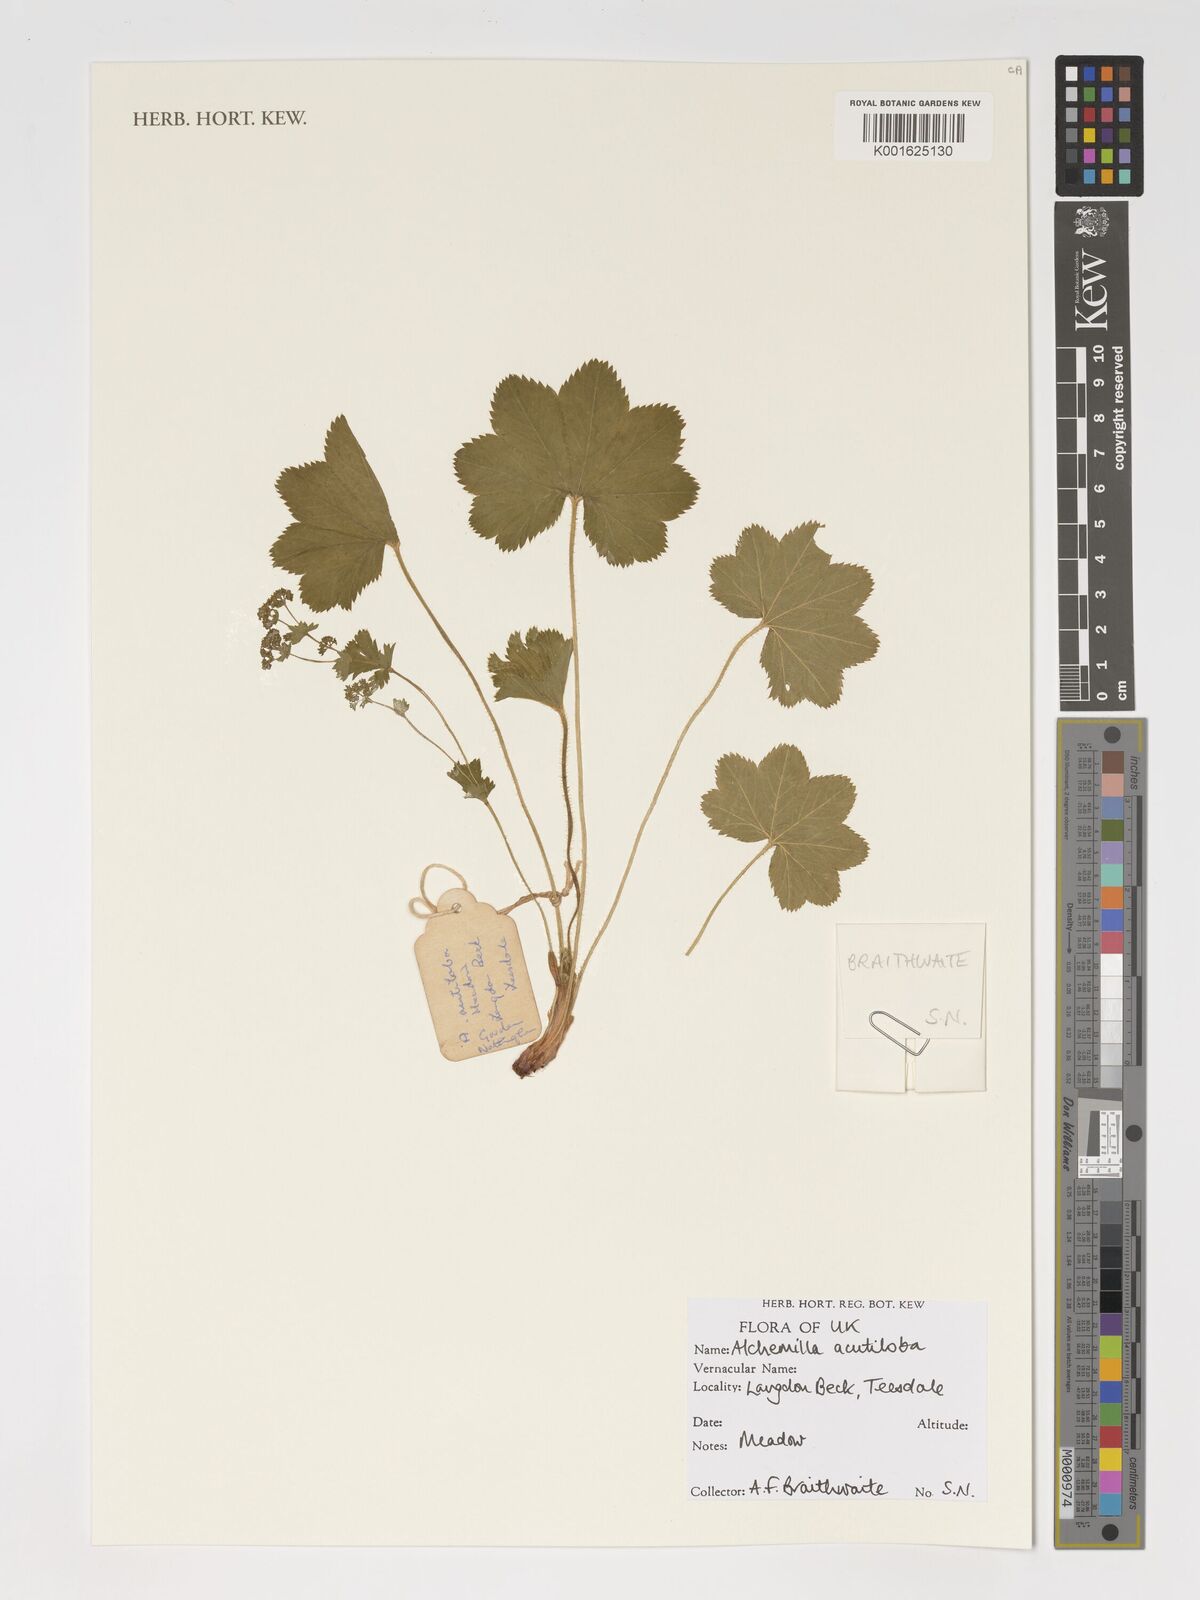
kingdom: Plantae
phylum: Tracheophyta
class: Magnoliopsida
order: Rosales
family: Rosaceae
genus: Alchemilla
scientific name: Alchemilla vulgaris
